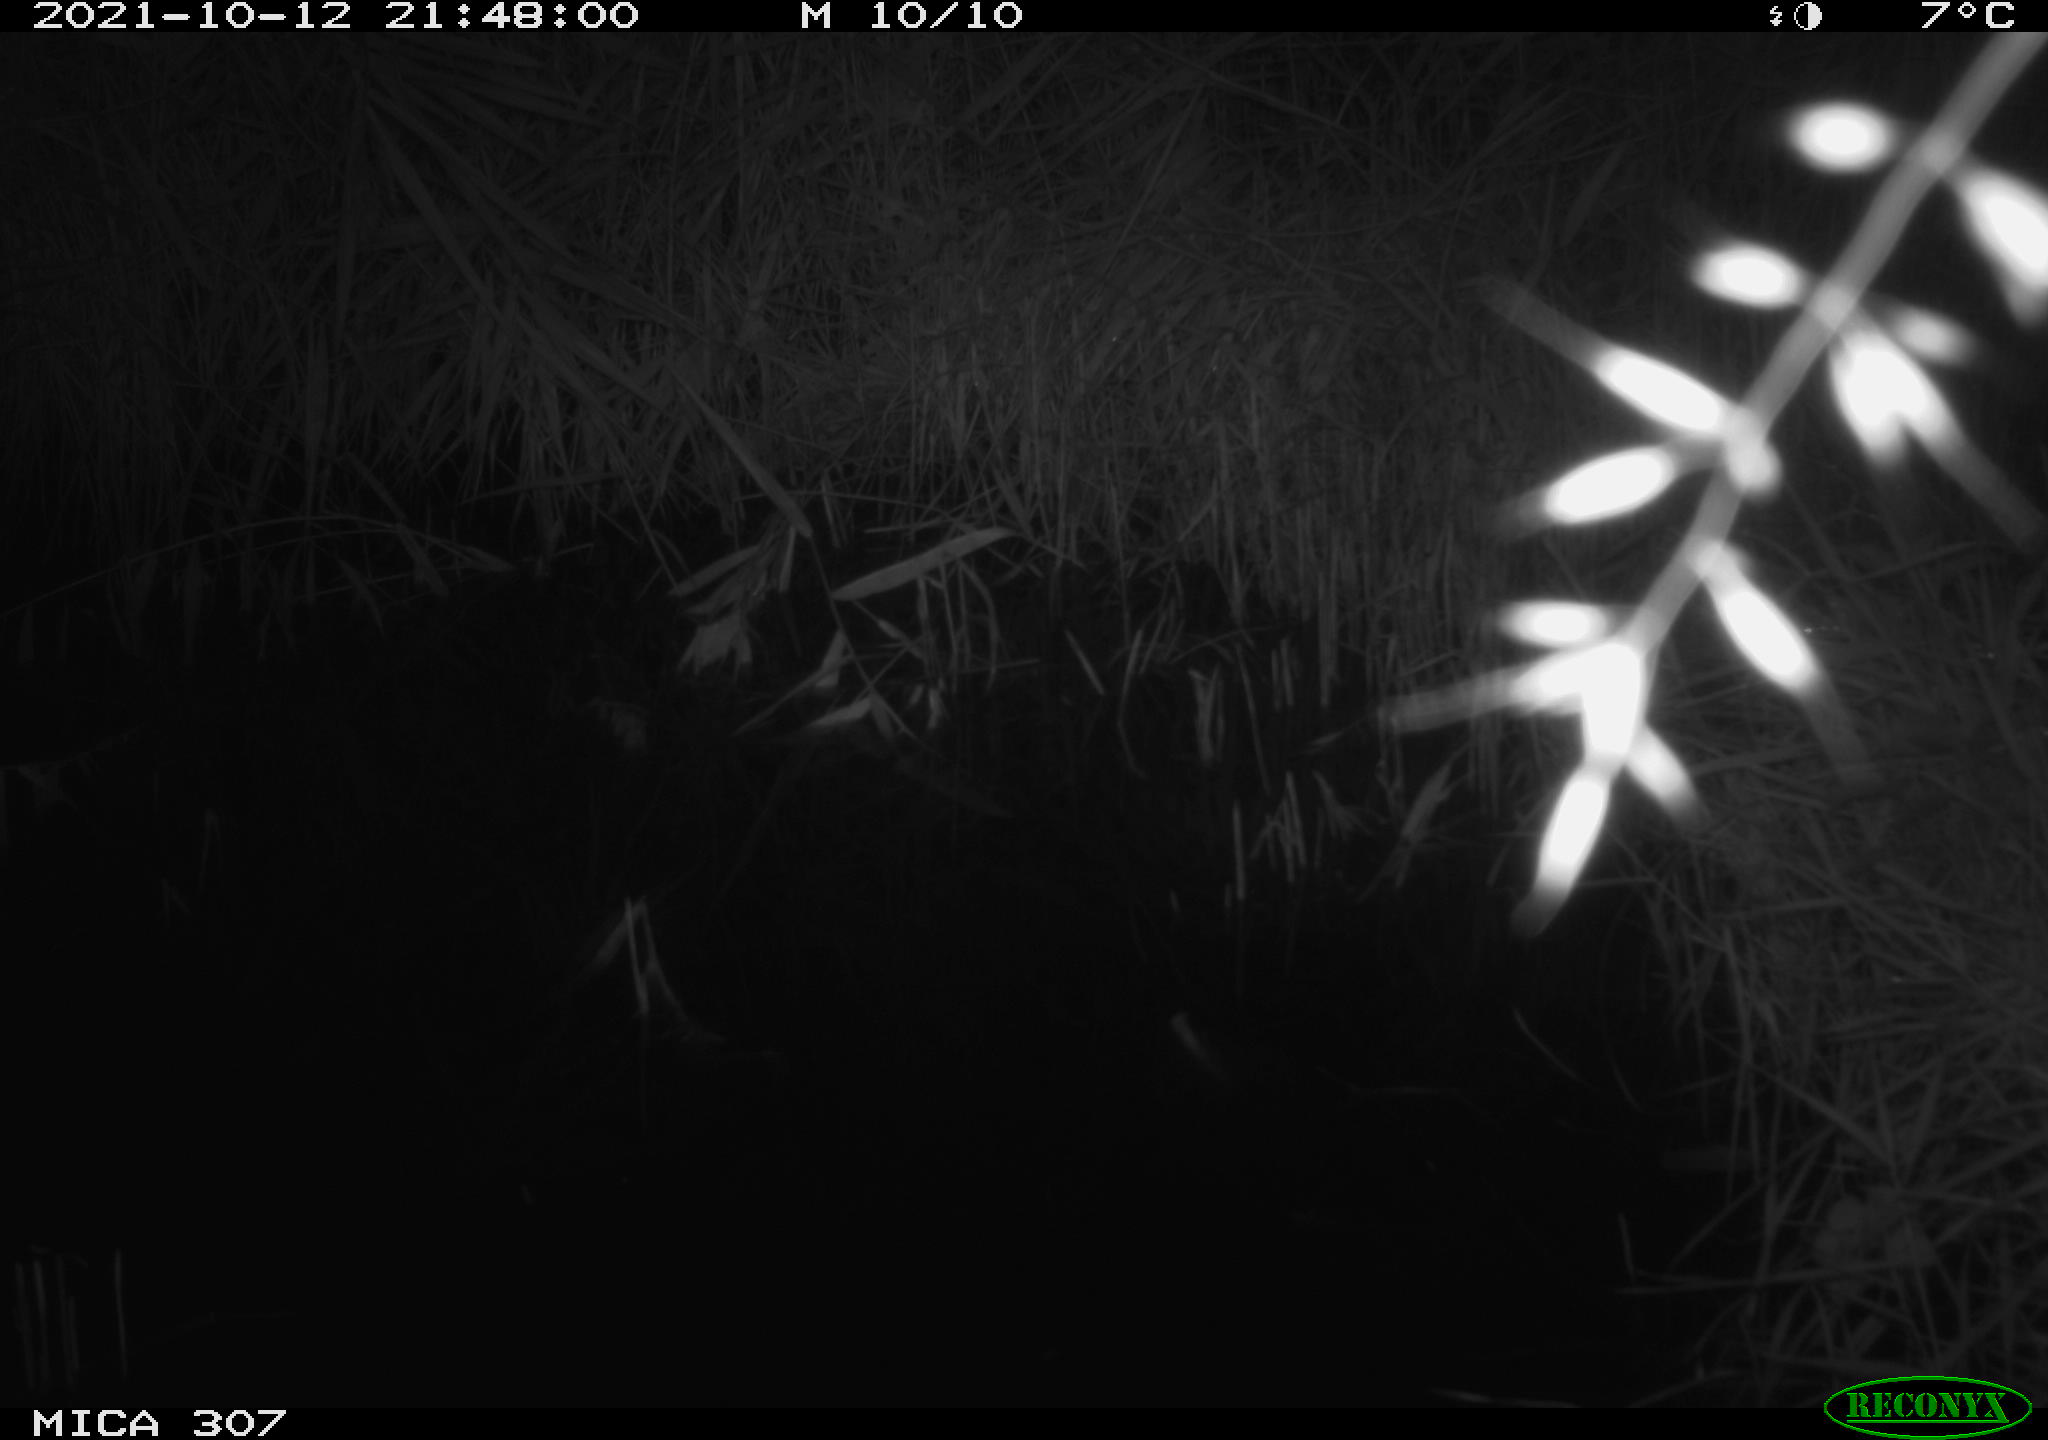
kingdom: Animalia
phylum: Chordata
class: Mammalia
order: Rodentia
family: Muridae
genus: Rattus
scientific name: Rattus norvegicus
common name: Brown rat
